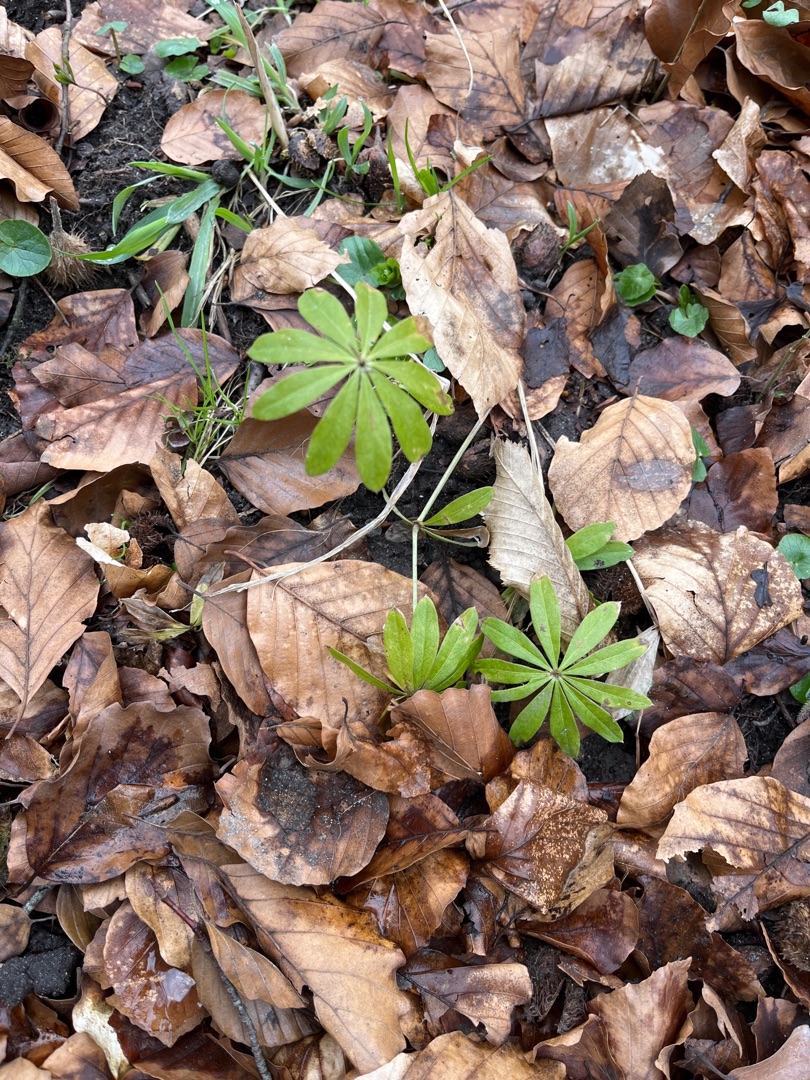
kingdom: Plantae
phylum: Tracheophyta
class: Magnoliopsida
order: Gentianales
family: Rubiaceae
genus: Galium
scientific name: Galium odoratum
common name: Skovmærke
